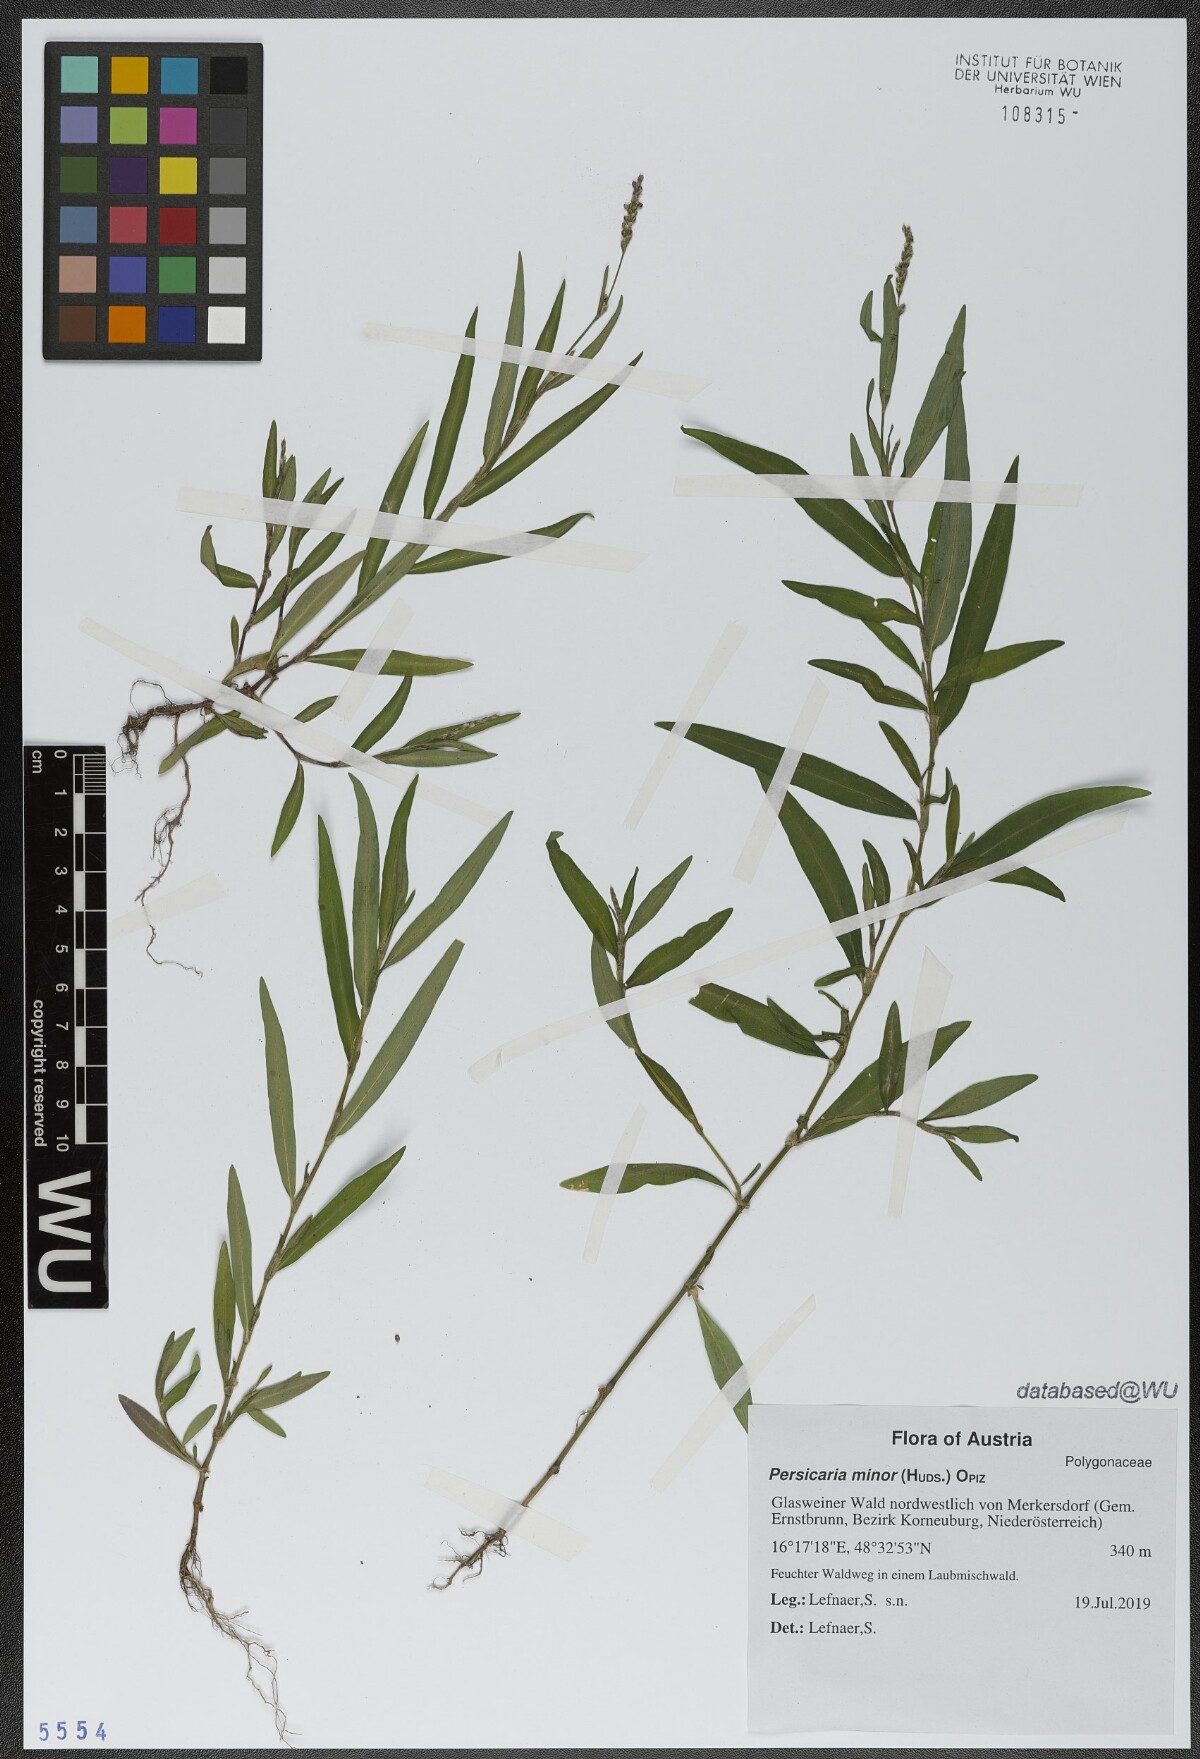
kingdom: Plantae
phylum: Tracheophyta
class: Magnoliopsida
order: Caryophyllales
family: Polygonaceae
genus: Persicaria
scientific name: Persicaria minor
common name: Small water-pepper
